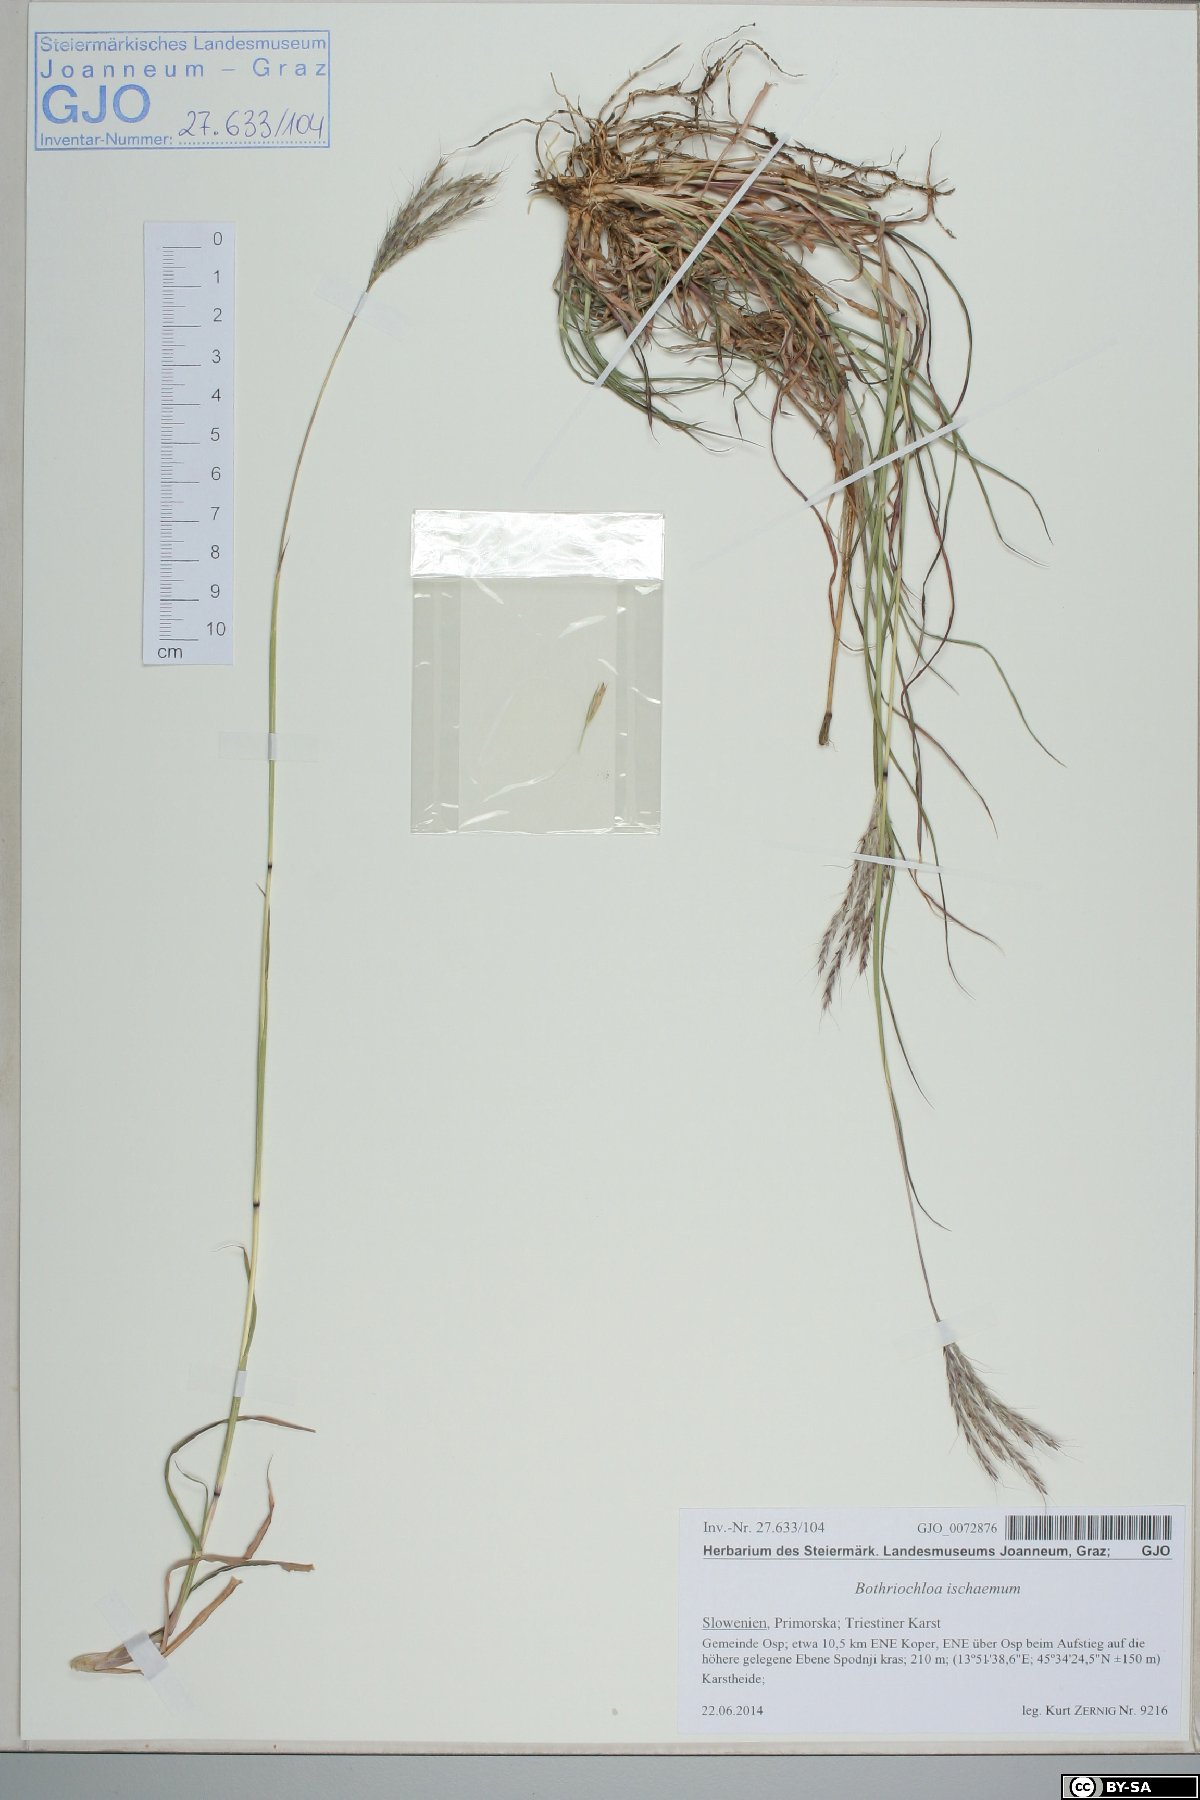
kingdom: Plantae
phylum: Tracheophyta
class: Liliopsida
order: Poales
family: Poaceae
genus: Bothriochloa
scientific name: Bothriochloa ischaemum
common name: Yellow bluestem
